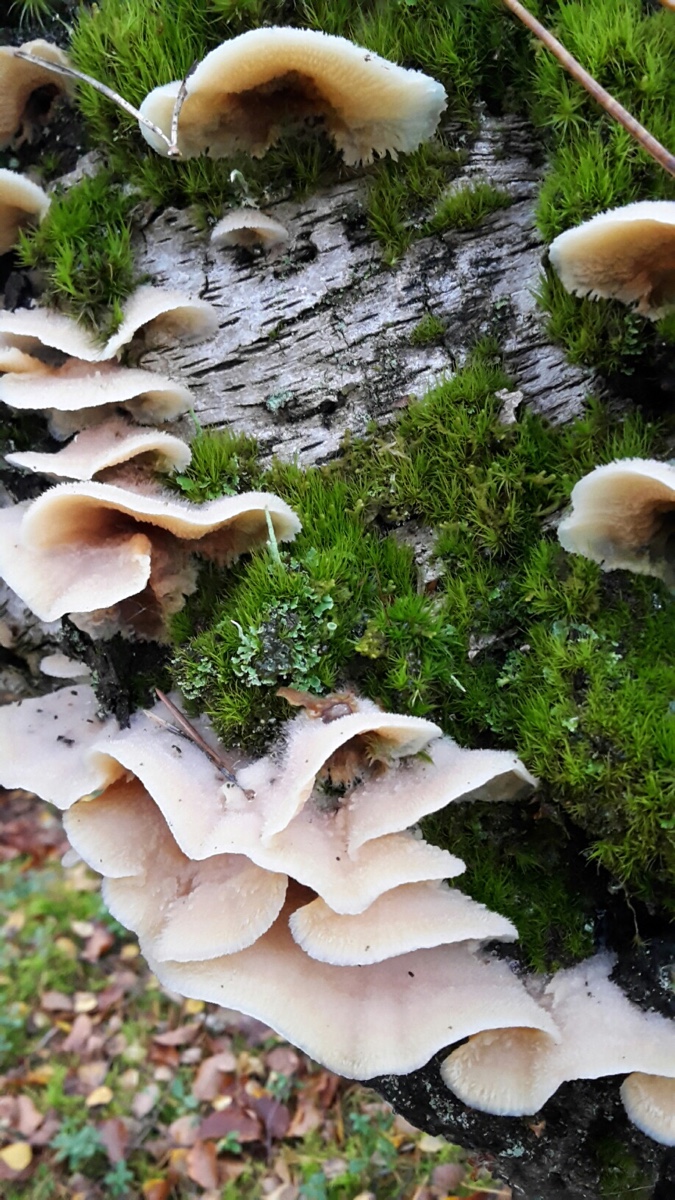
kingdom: Fungi
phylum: Basidiomycota
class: Agaricomycetes
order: Polyporales
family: Meruliaceae
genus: Phlebia
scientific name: Phlebia tremellosa
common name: bævrende åresvamp
